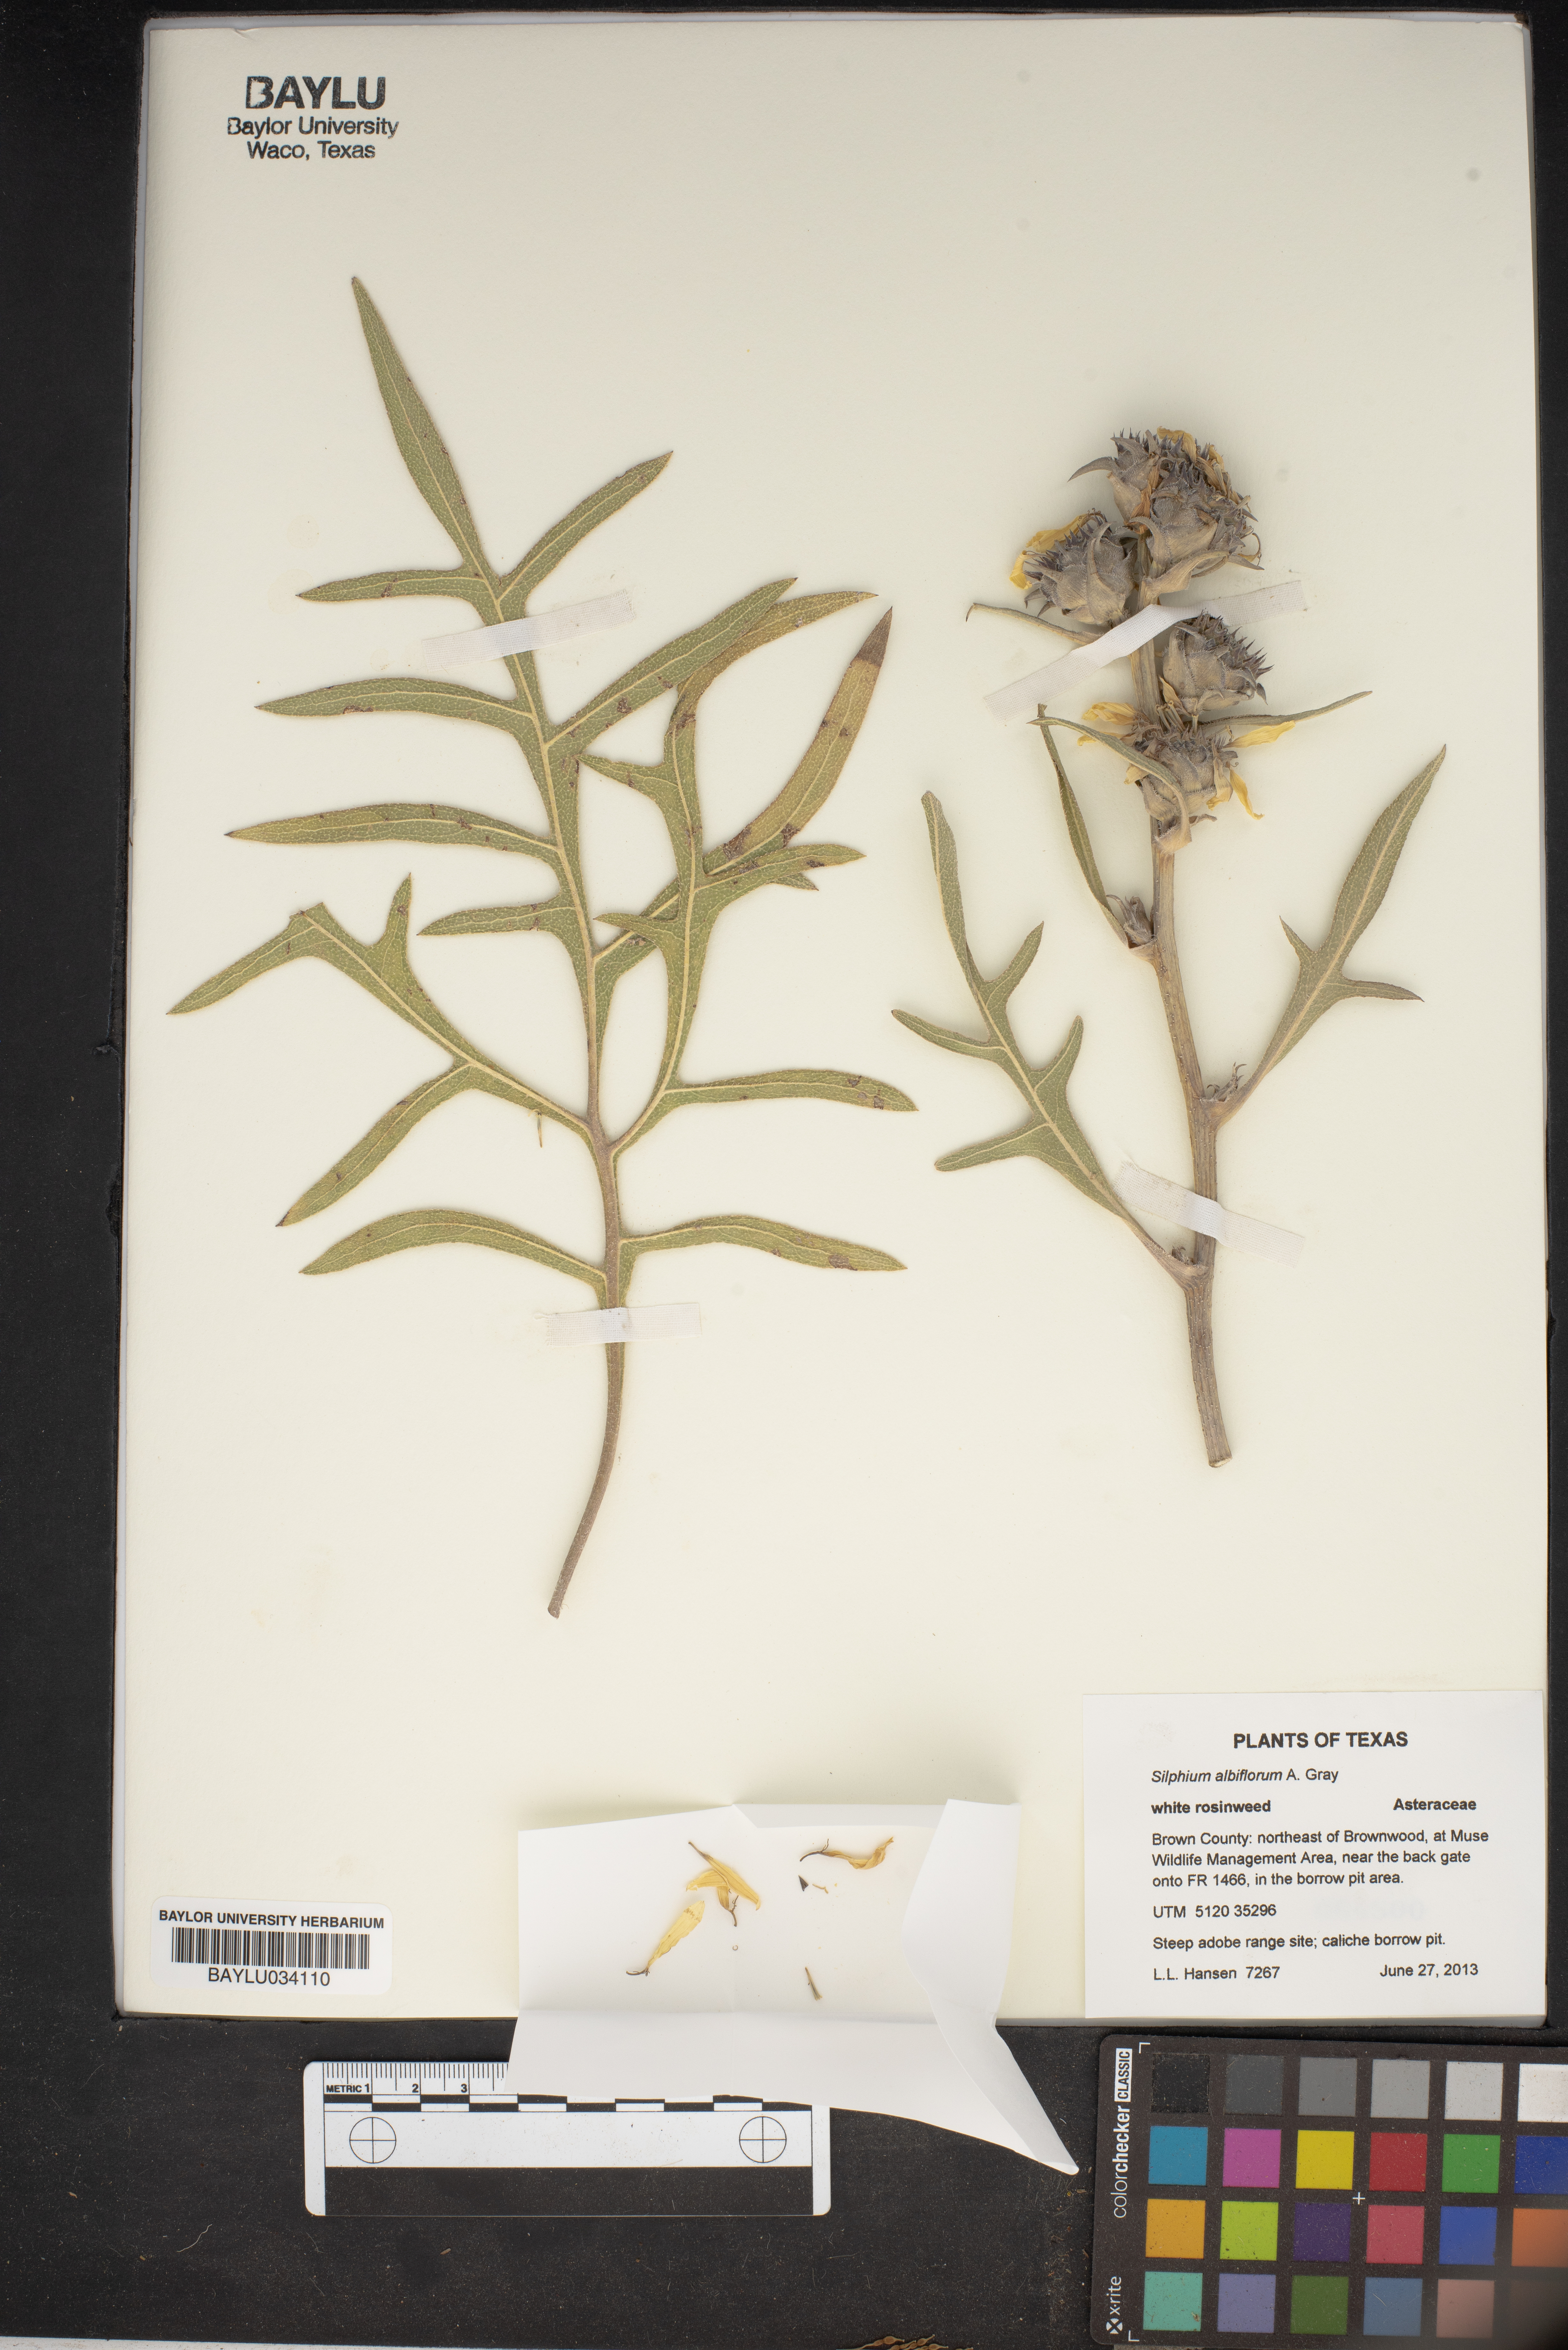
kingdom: Plantae
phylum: Tracheophyta
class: Magnoliopsida
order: Asterales
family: Asteraceae
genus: Silphium
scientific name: Silphium albiflorum
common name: White rosinweed
